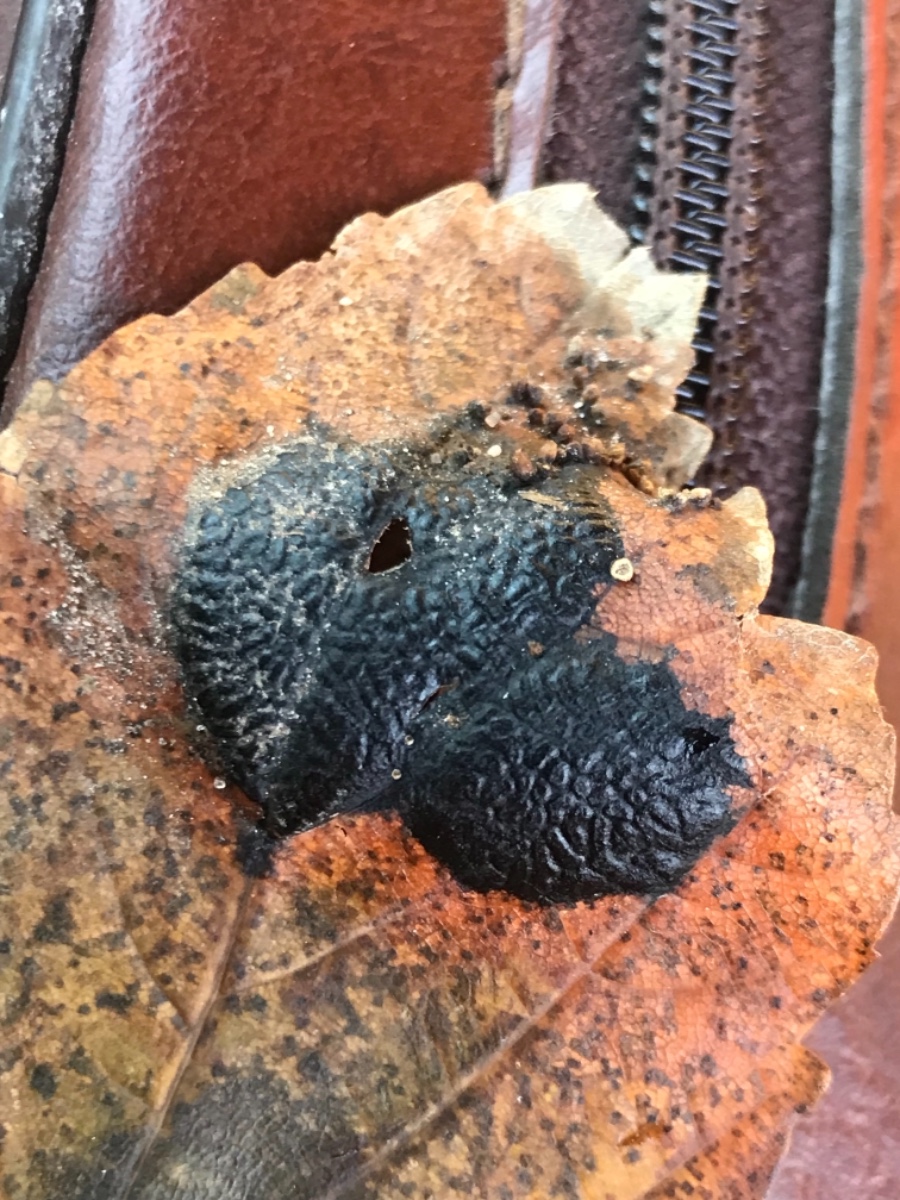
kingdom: Fungi
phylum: Ascomycota
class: Leotiomycetes
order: Rhytismatales
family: Rhytismataceae
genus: Rhytisma
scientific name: Rhytisma acerinum
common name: ahorn-rynkeplet
